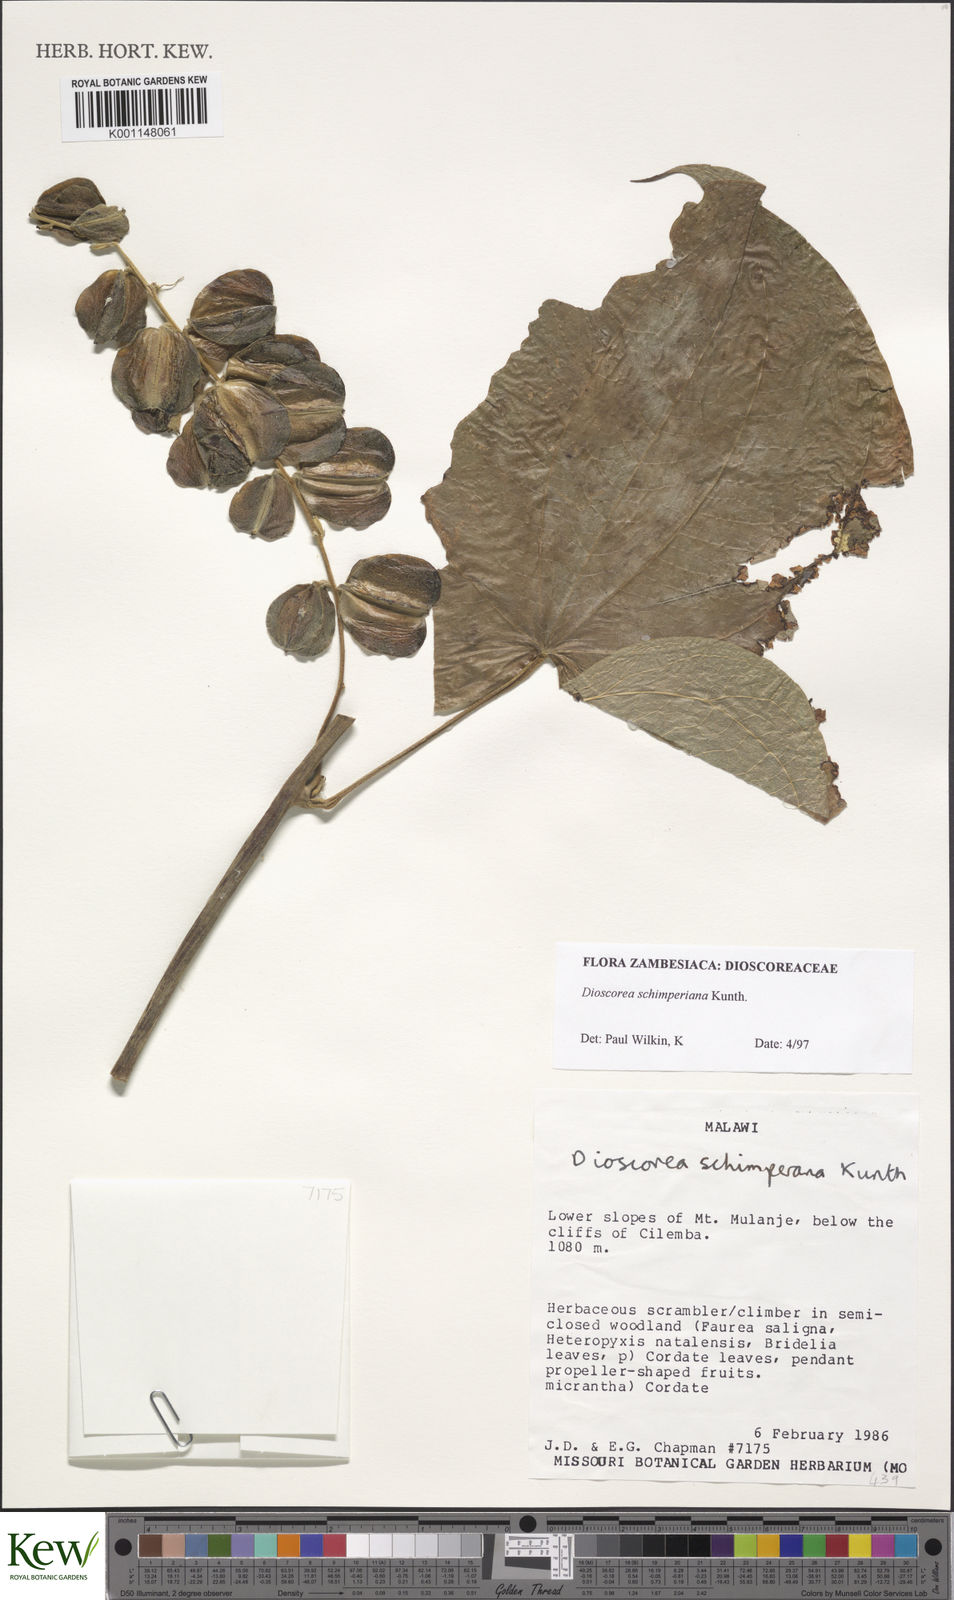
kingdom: Plantae
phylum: Tracheophyta
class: Liliopsida
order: Dioscoreales
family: Dioscoreaceae
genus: Dioscorea
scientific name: Dioscorea schimperiana
